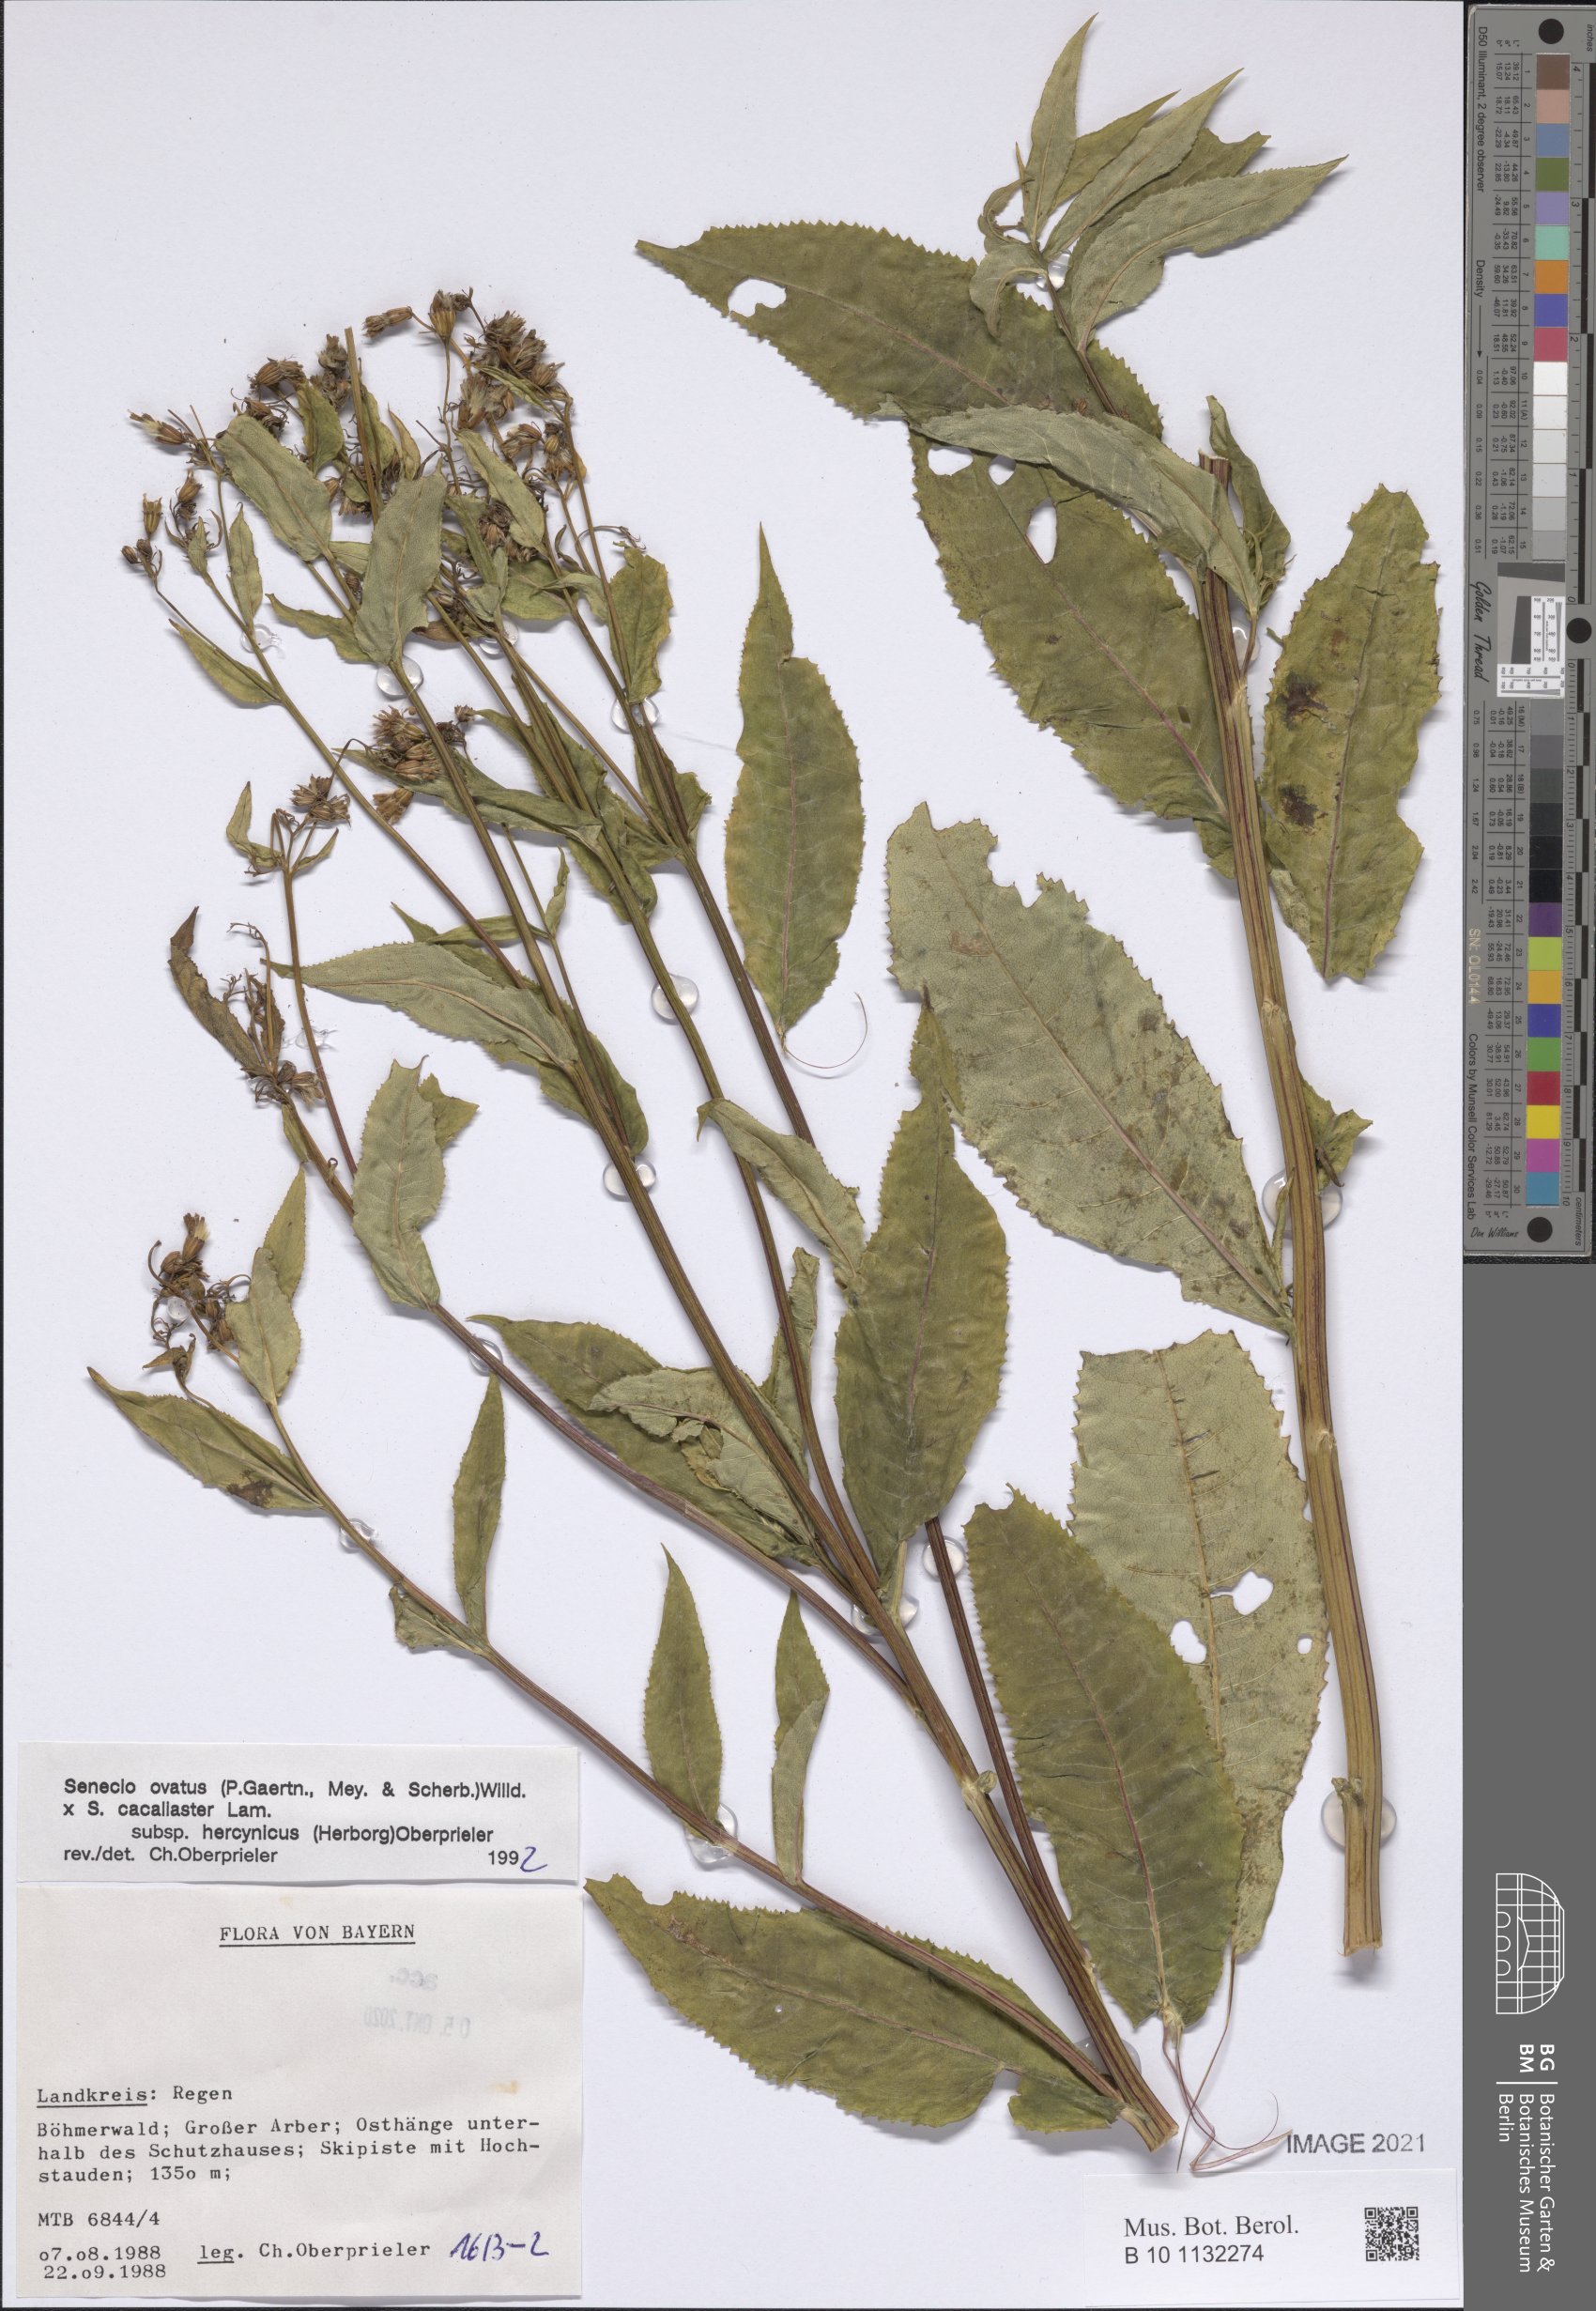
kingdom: Plantae
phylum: Tracheophyta
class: Magnoliopsida
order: Asterales
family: Asteraceae
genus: Senecio
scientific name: Senecio ovatus
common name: Wood ragwort
